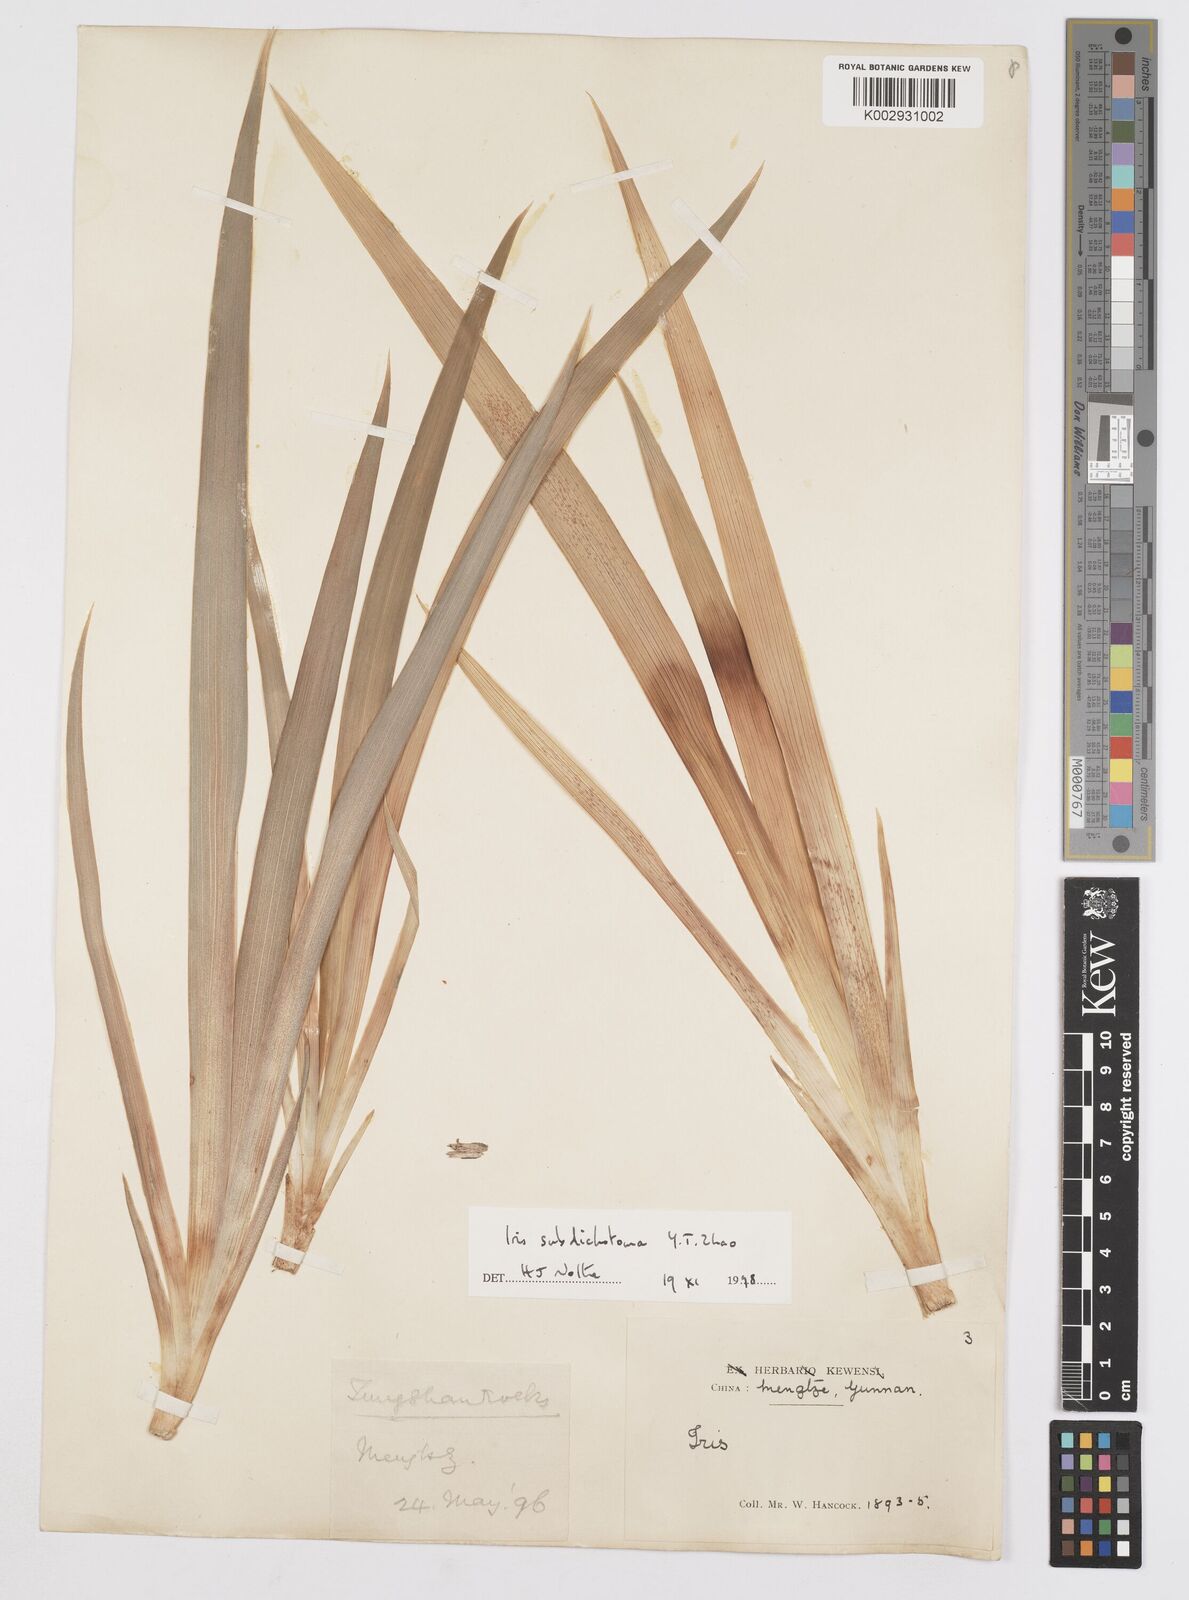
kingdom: Plantae
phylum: Tracheophyta
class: Liliopsida
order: Asparagales
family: Iridaceae
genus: Iris
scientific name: Iris subdichotoma
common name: Zhongdian iris
